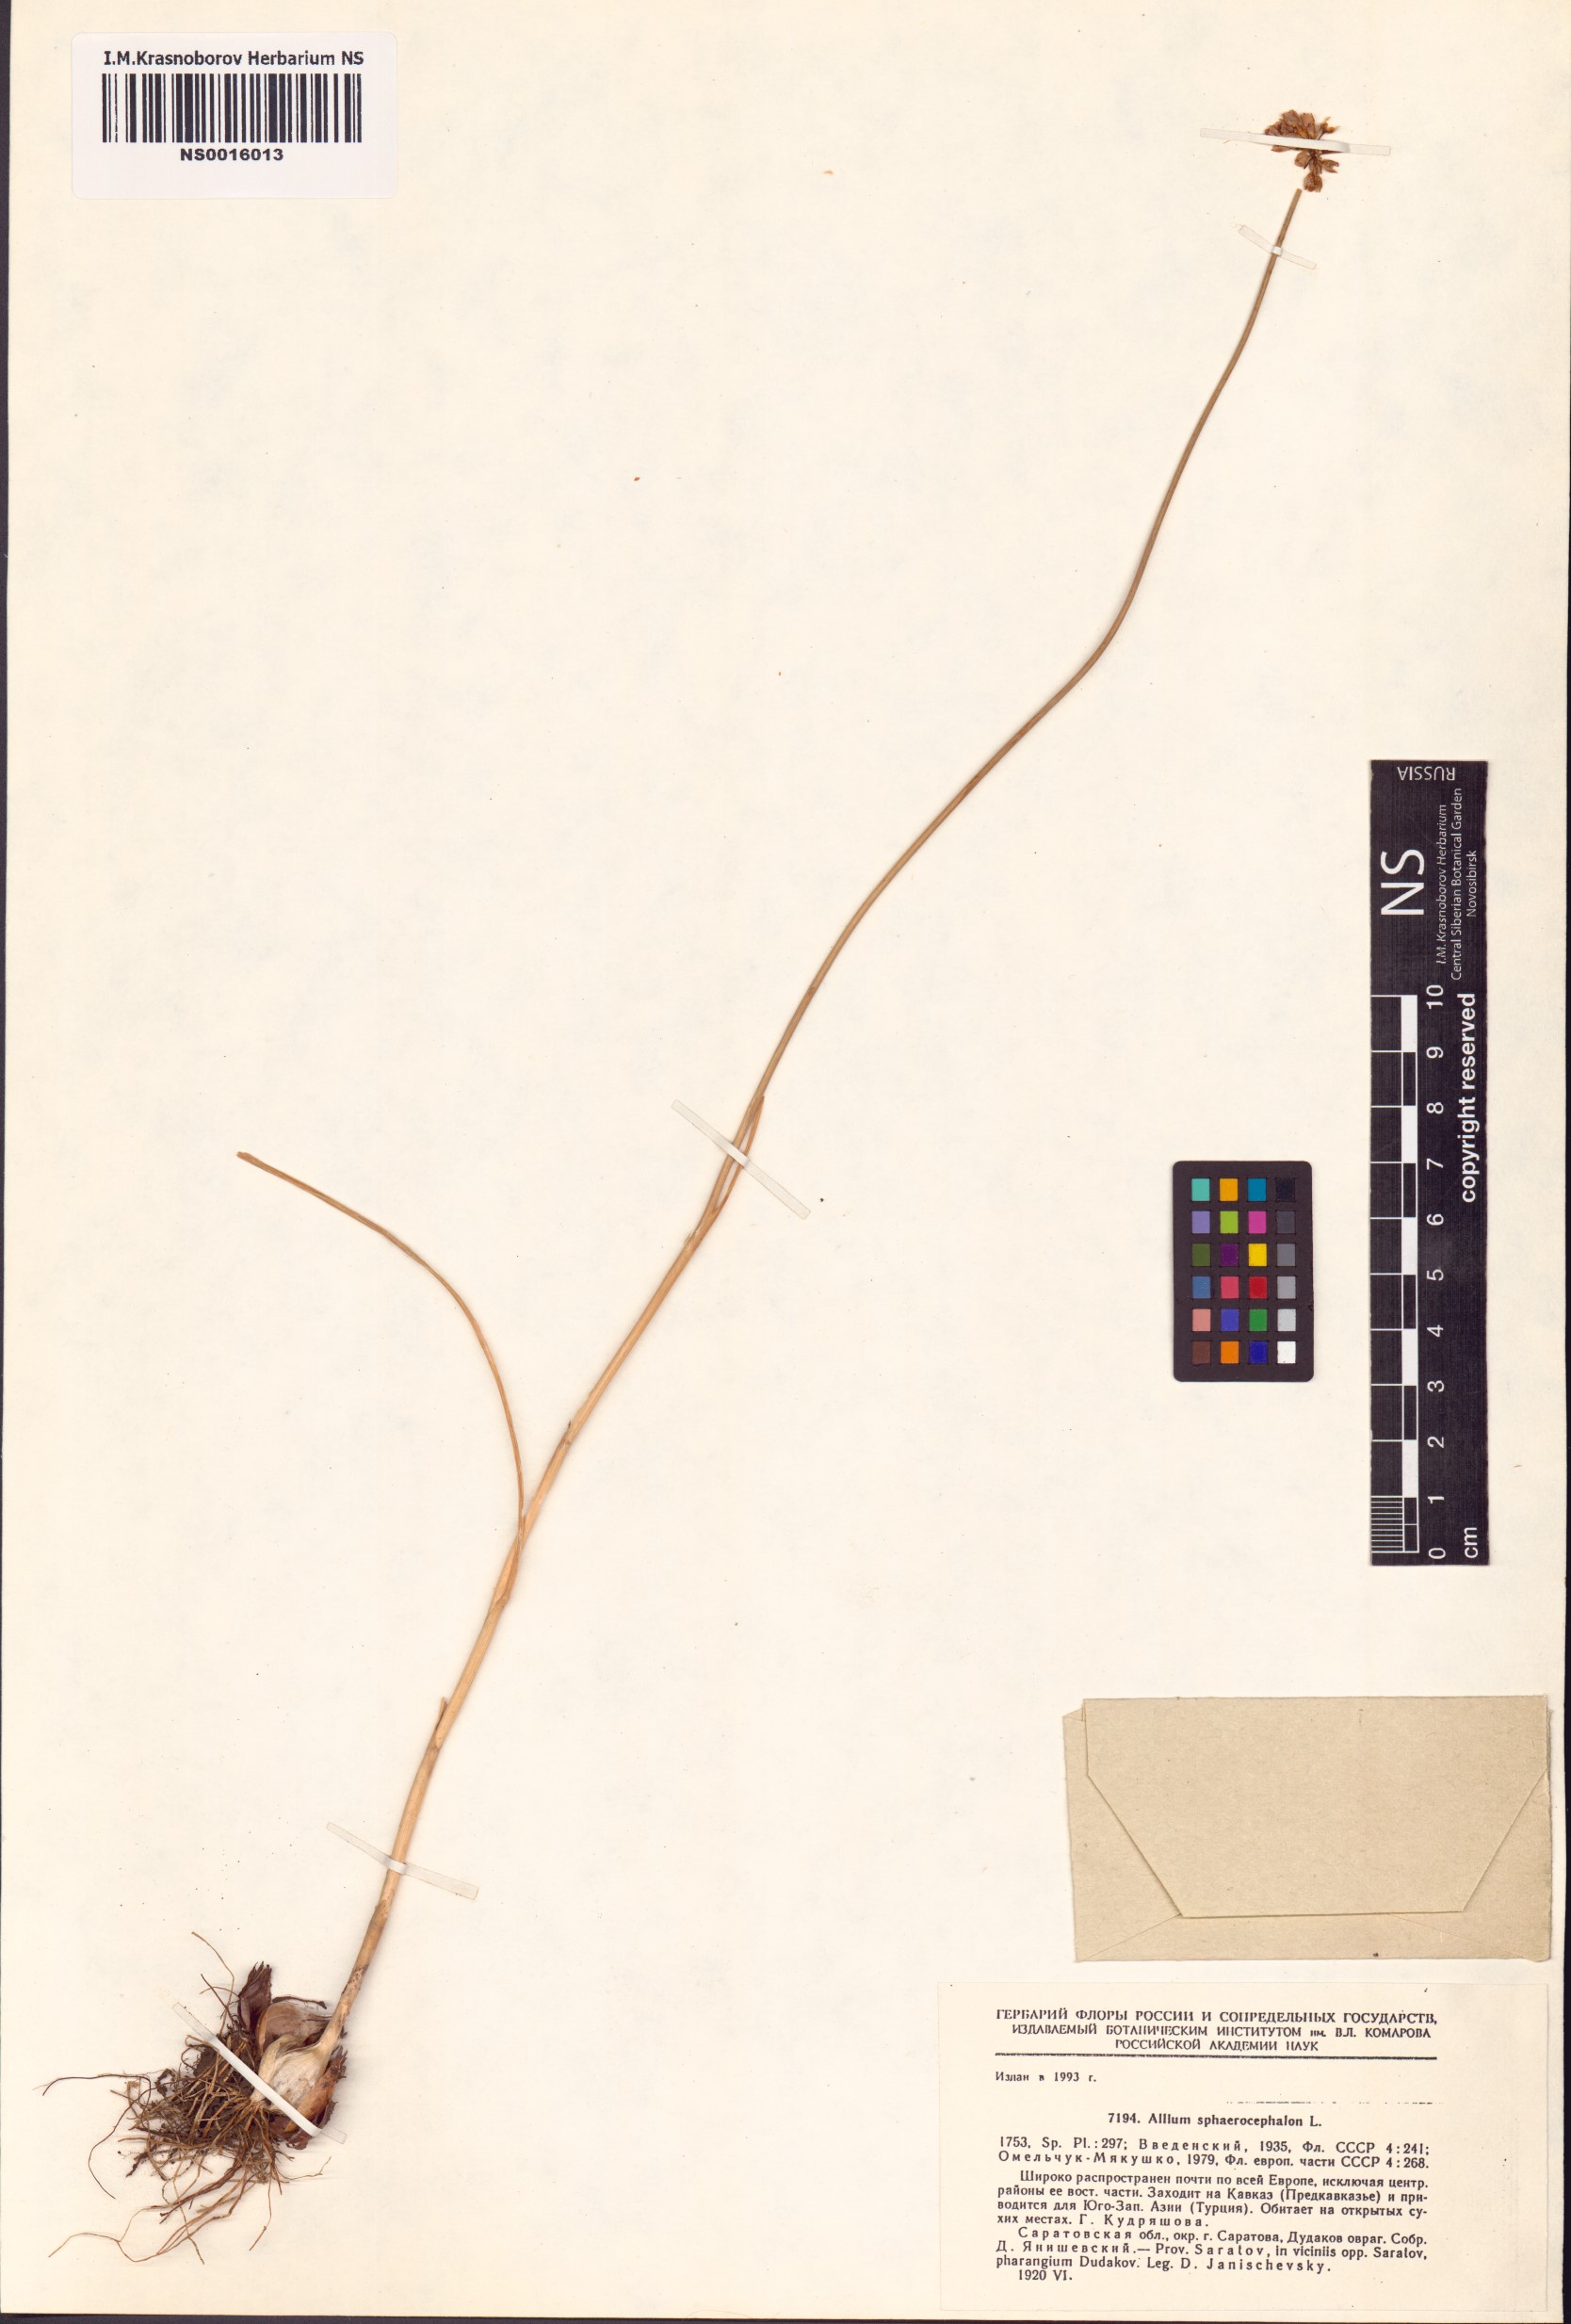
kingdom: Plantae
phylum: Tracheophyta
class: Liliopsida
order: Asparagales
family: Amaryllidaceae
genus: Allium
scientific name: Allium sphaerocephalon
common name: Round-headed leek
